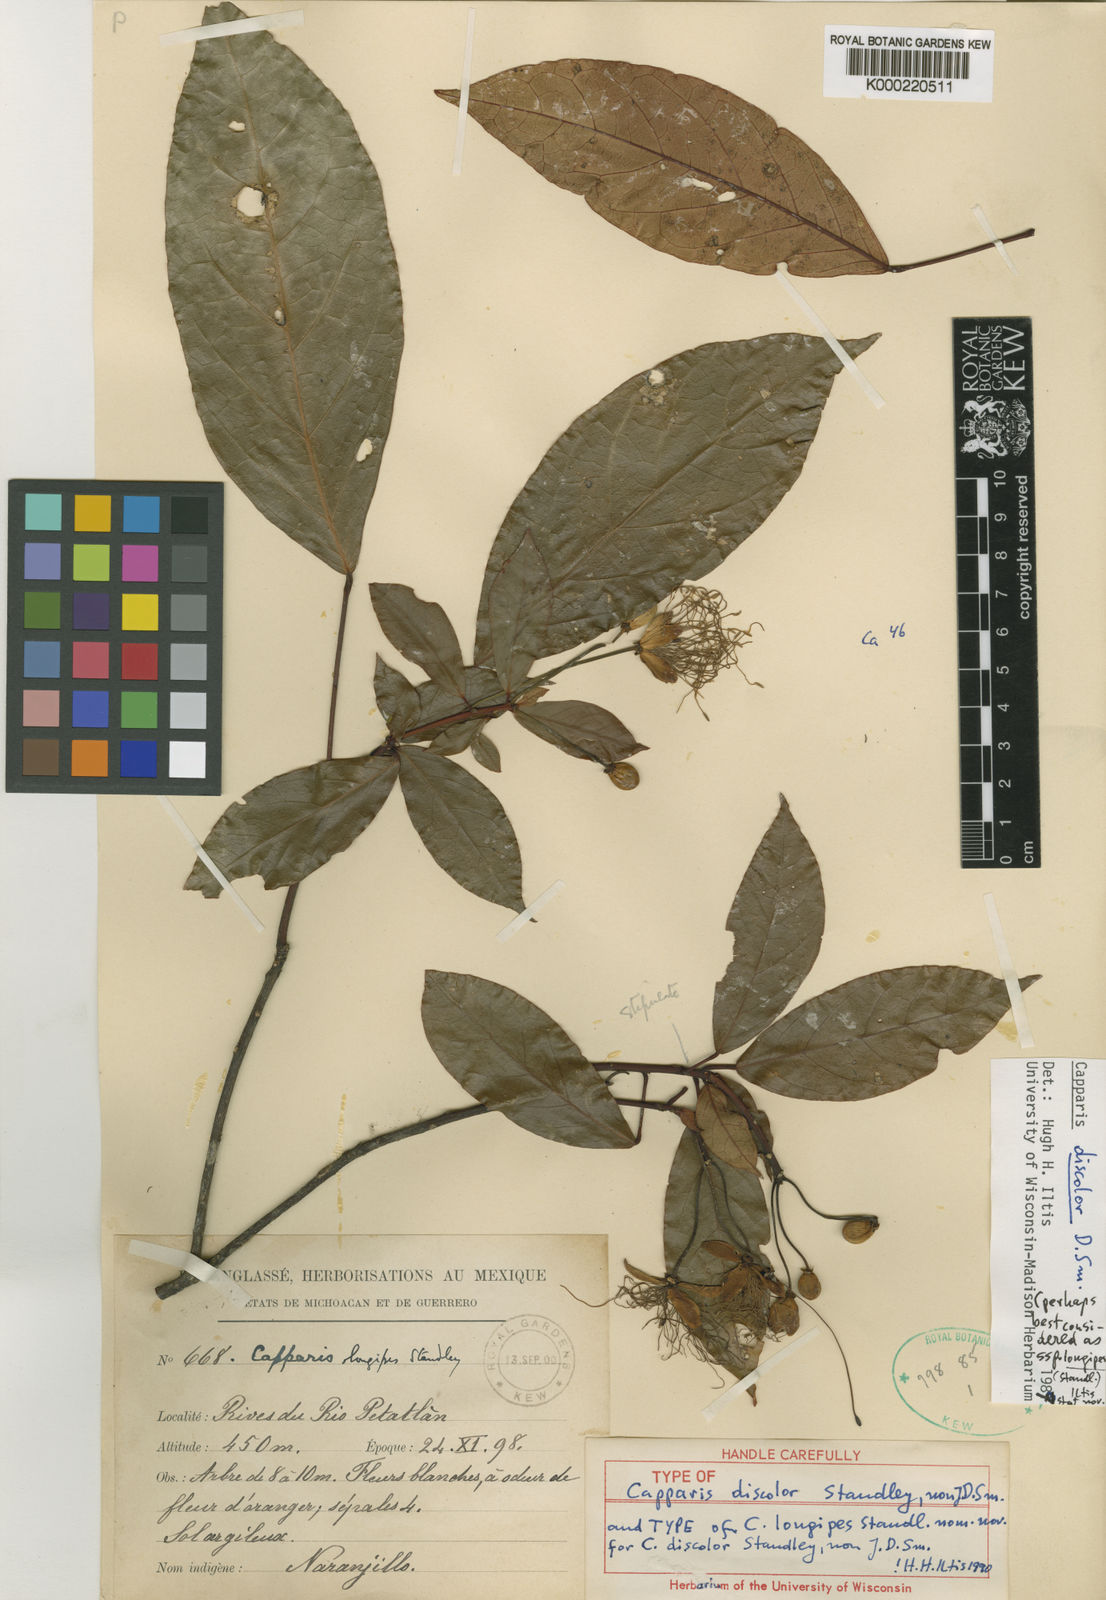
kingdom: Plantae
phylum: Tracheophyta
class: Magnoliopsida
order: Brassicales
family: Capparaceae
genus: Capparidastrum
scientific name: Capparidastrum discolor
